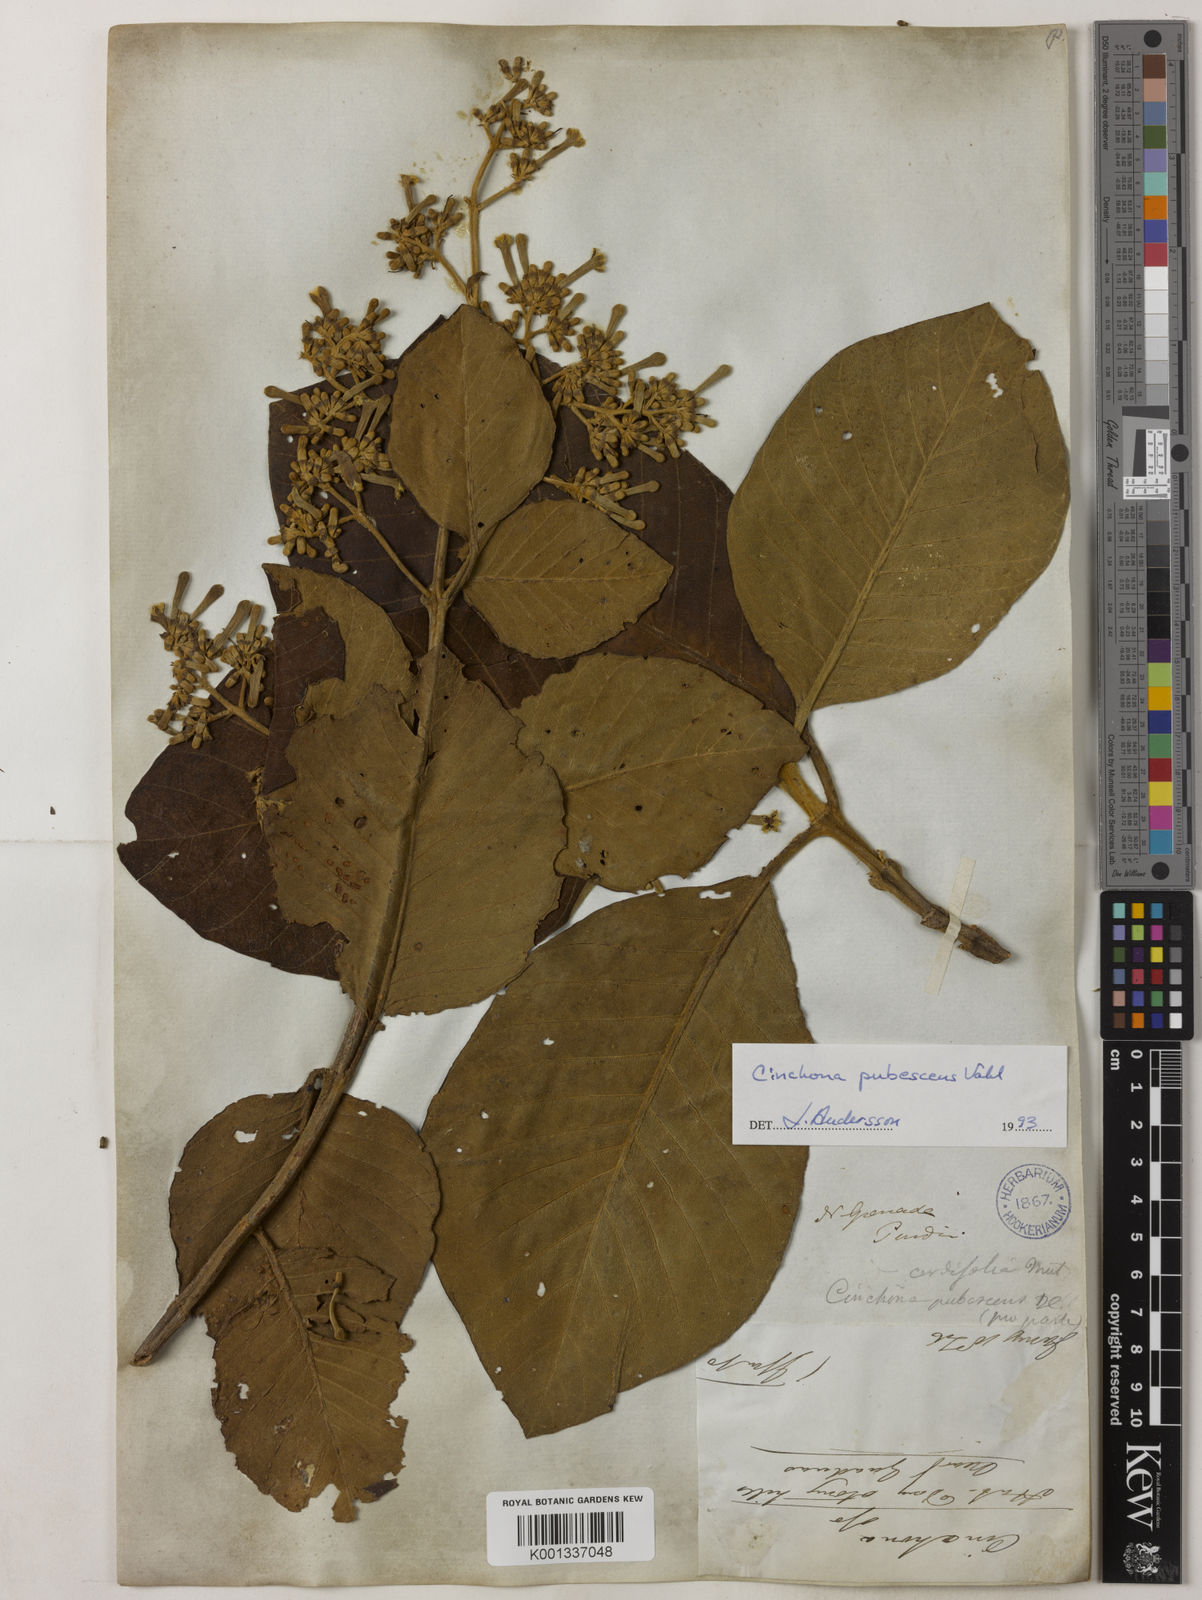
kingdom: Plantae
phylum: Tracheophyta
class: Magnoliopsida
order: Gentianales
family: Rubiaceae
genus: Cinchona
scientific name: Cinchona pubescens
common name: Quinine
